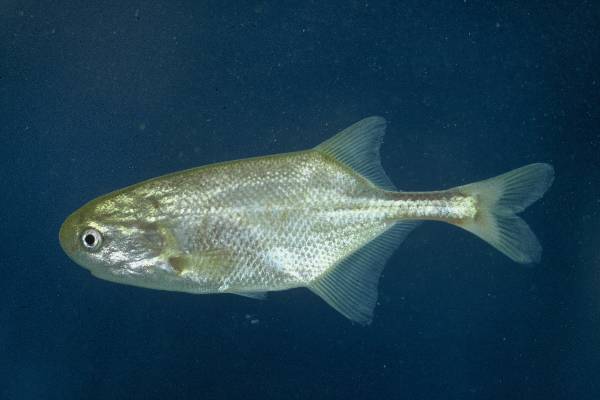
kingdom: Animalia
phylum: Chordata
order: Osteoglossiformes
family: Mormyridae
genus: Petrocephalus
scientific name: Petrocephalus catostoma
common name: Churchill
